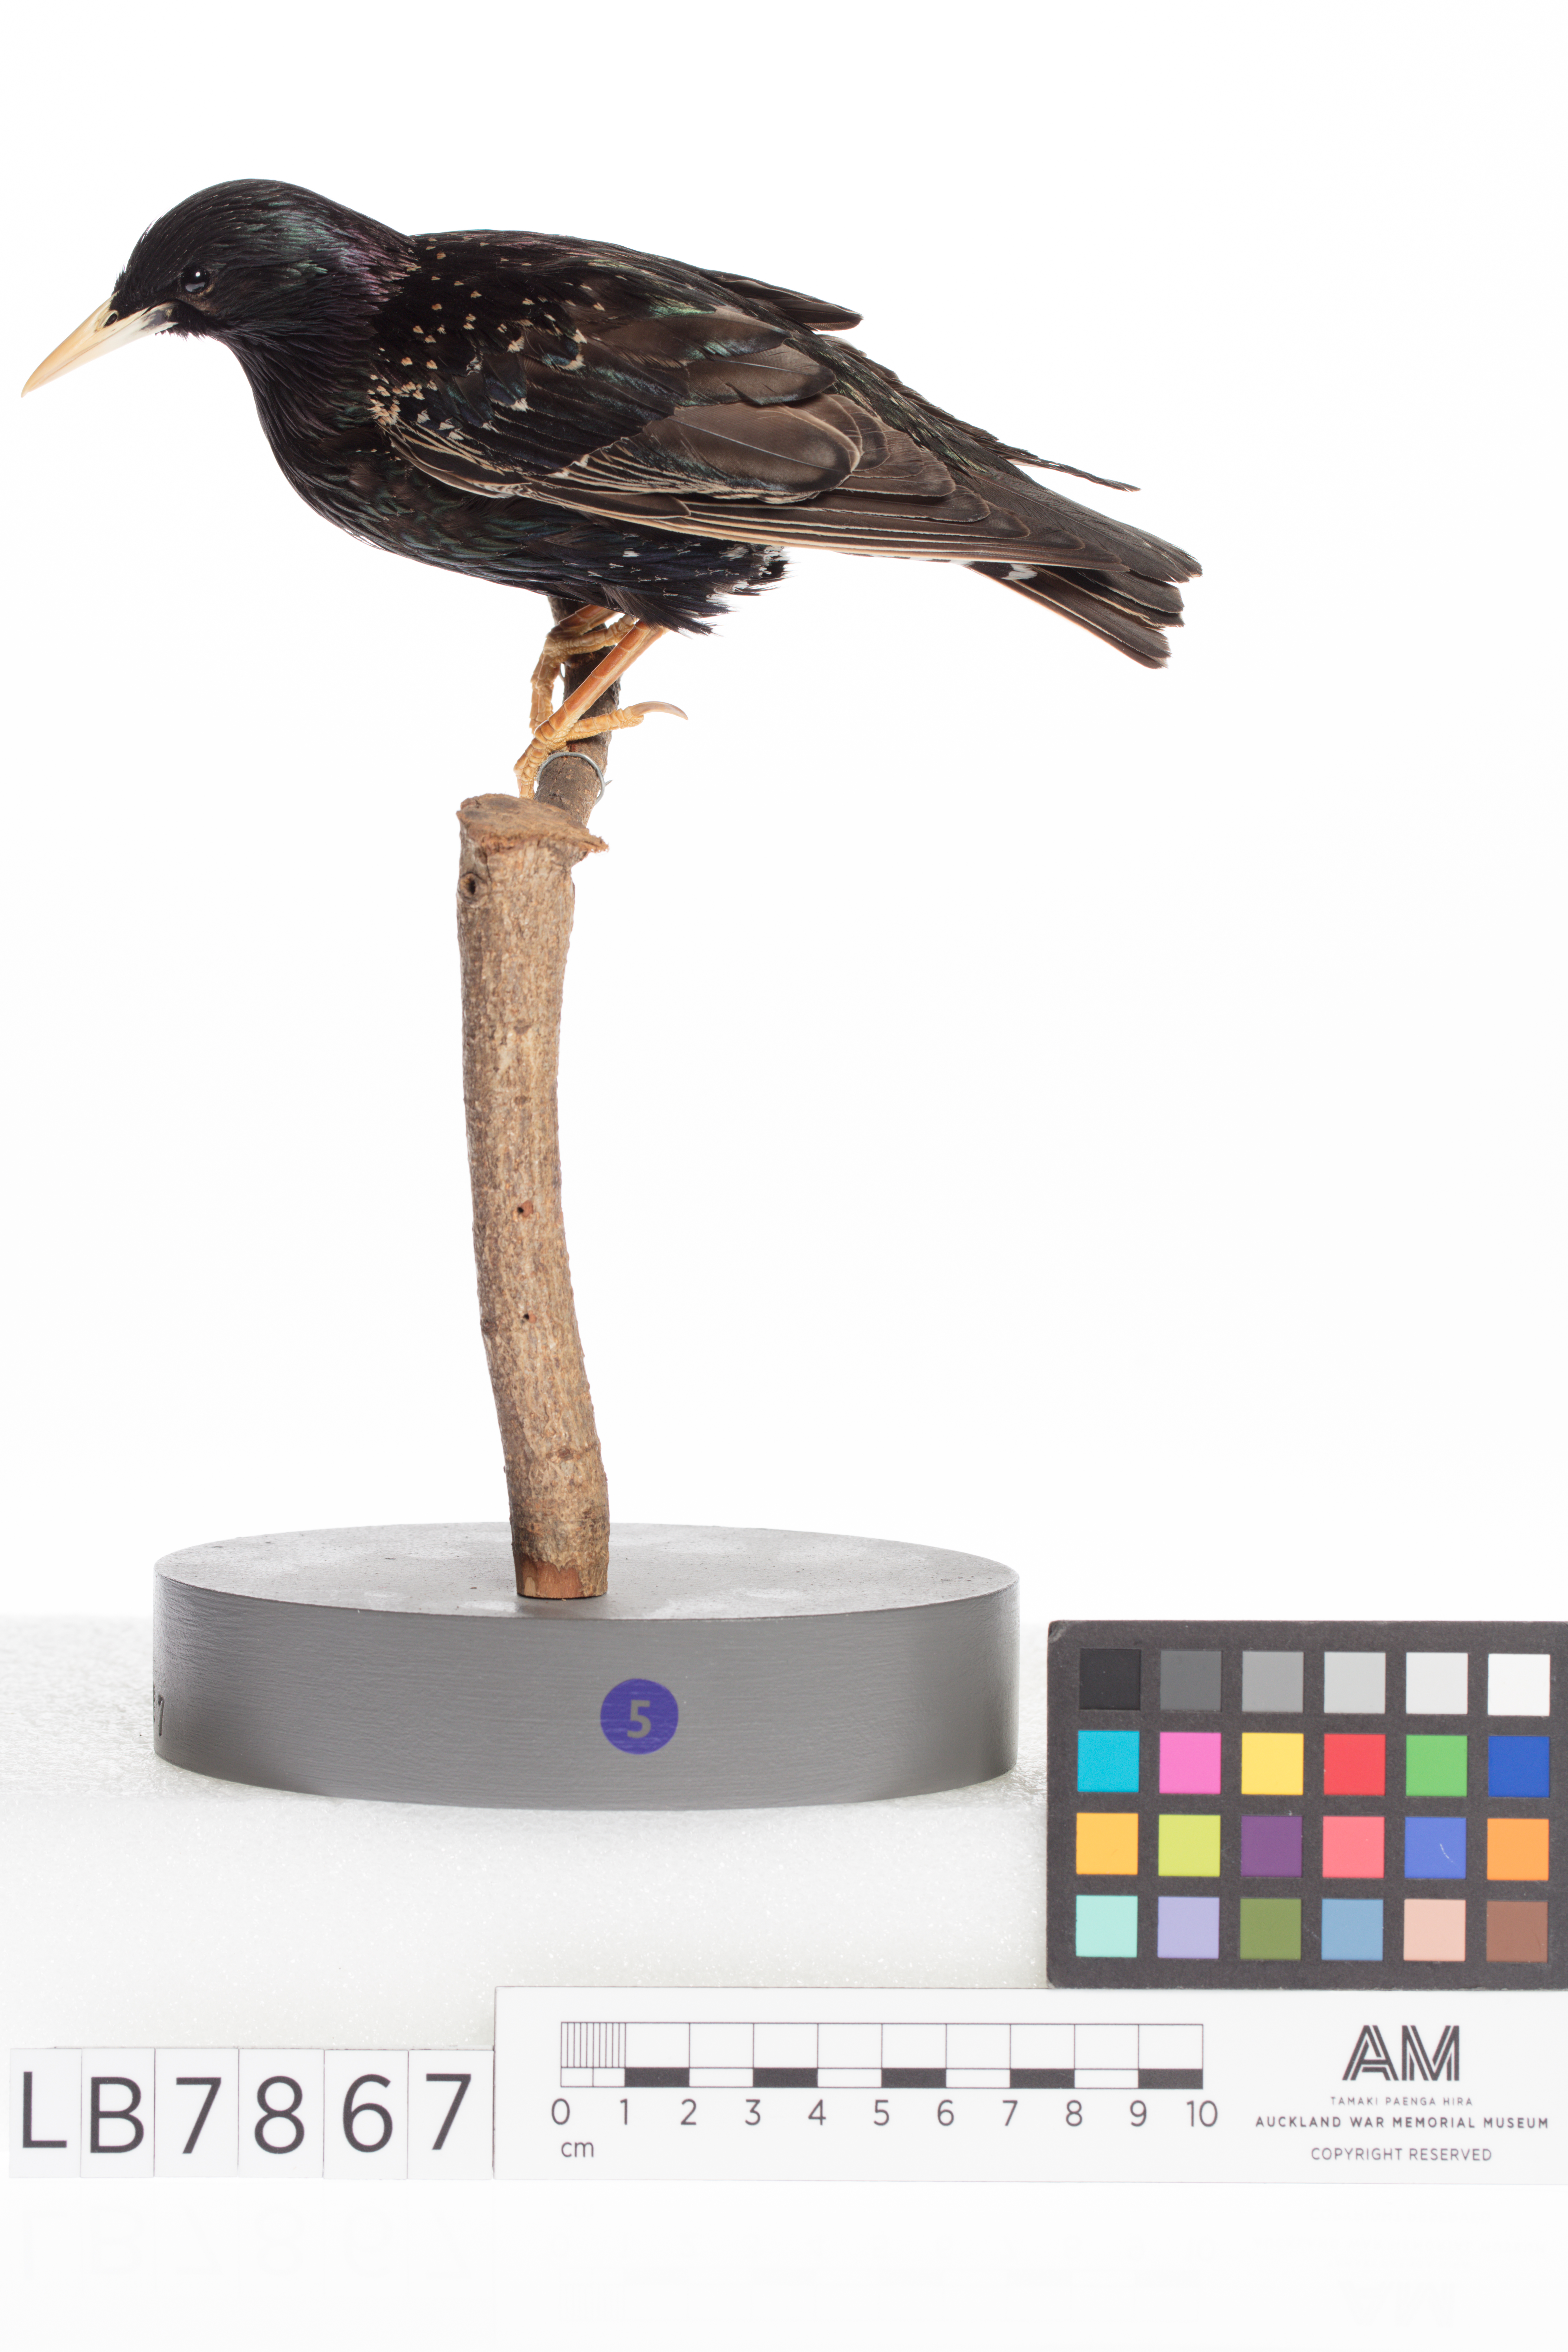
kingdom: Animalia
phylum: Chordata
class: Aves
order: Passeriformes
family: Sturnidae
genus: Sturnus
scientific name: Sturnus vulgaris
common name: Common starling
